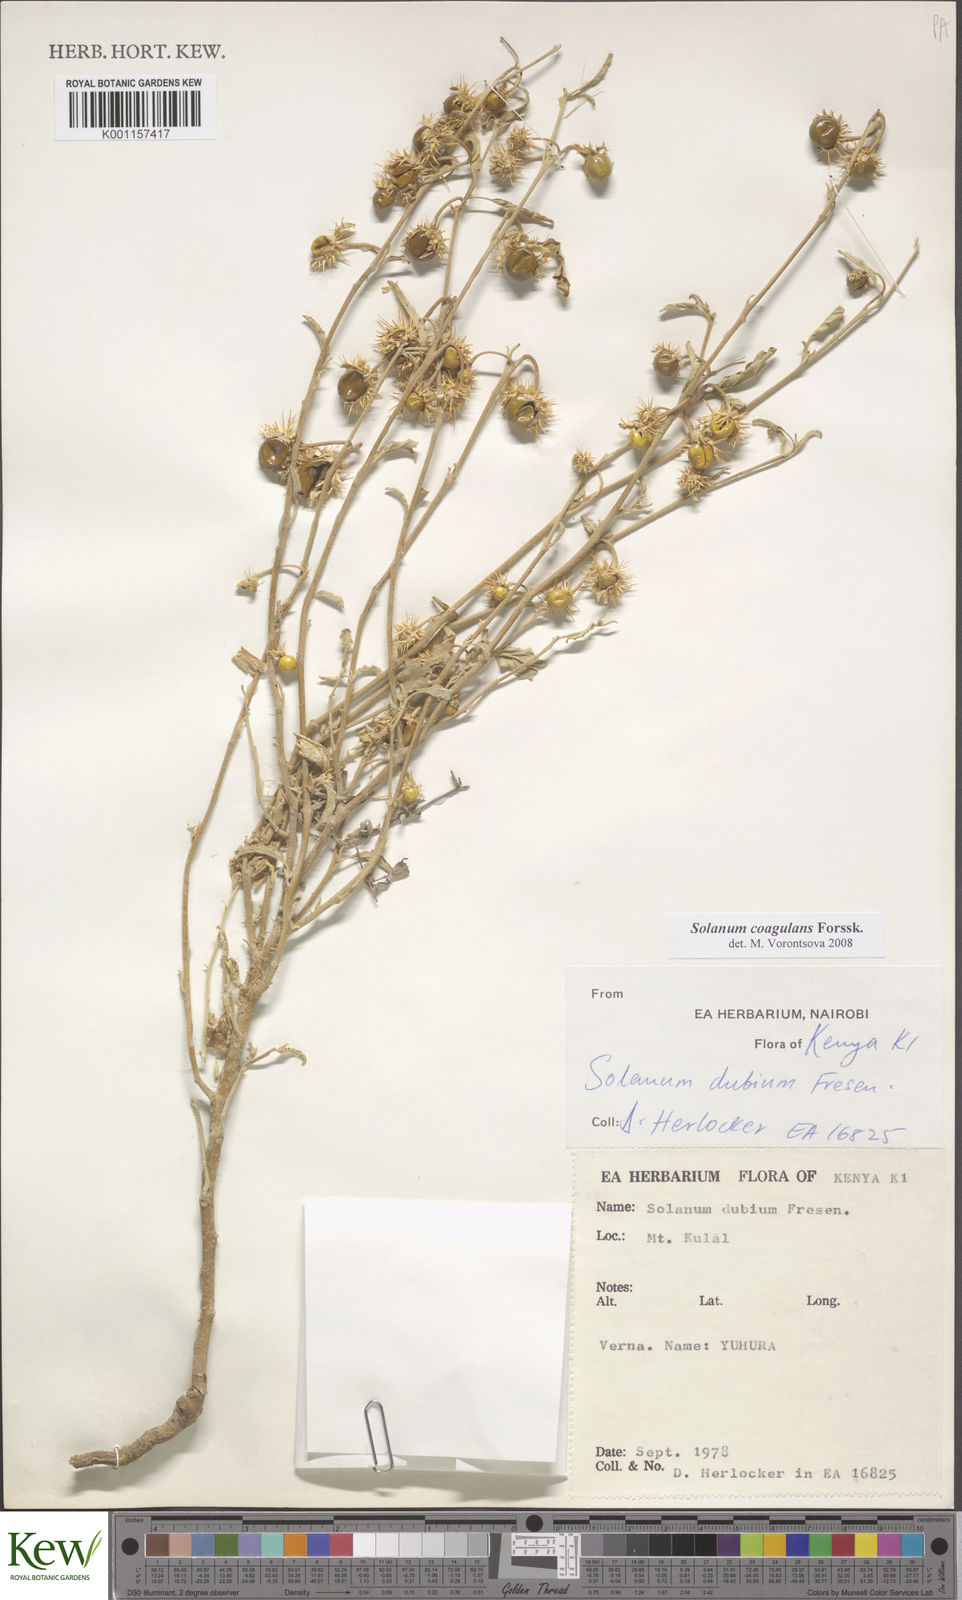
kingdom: Plantae
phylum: Tracheophyta
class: Magnoliopsida
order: Solanales
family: Solanaceae
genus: Solanum
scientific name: Solanum coagulans
